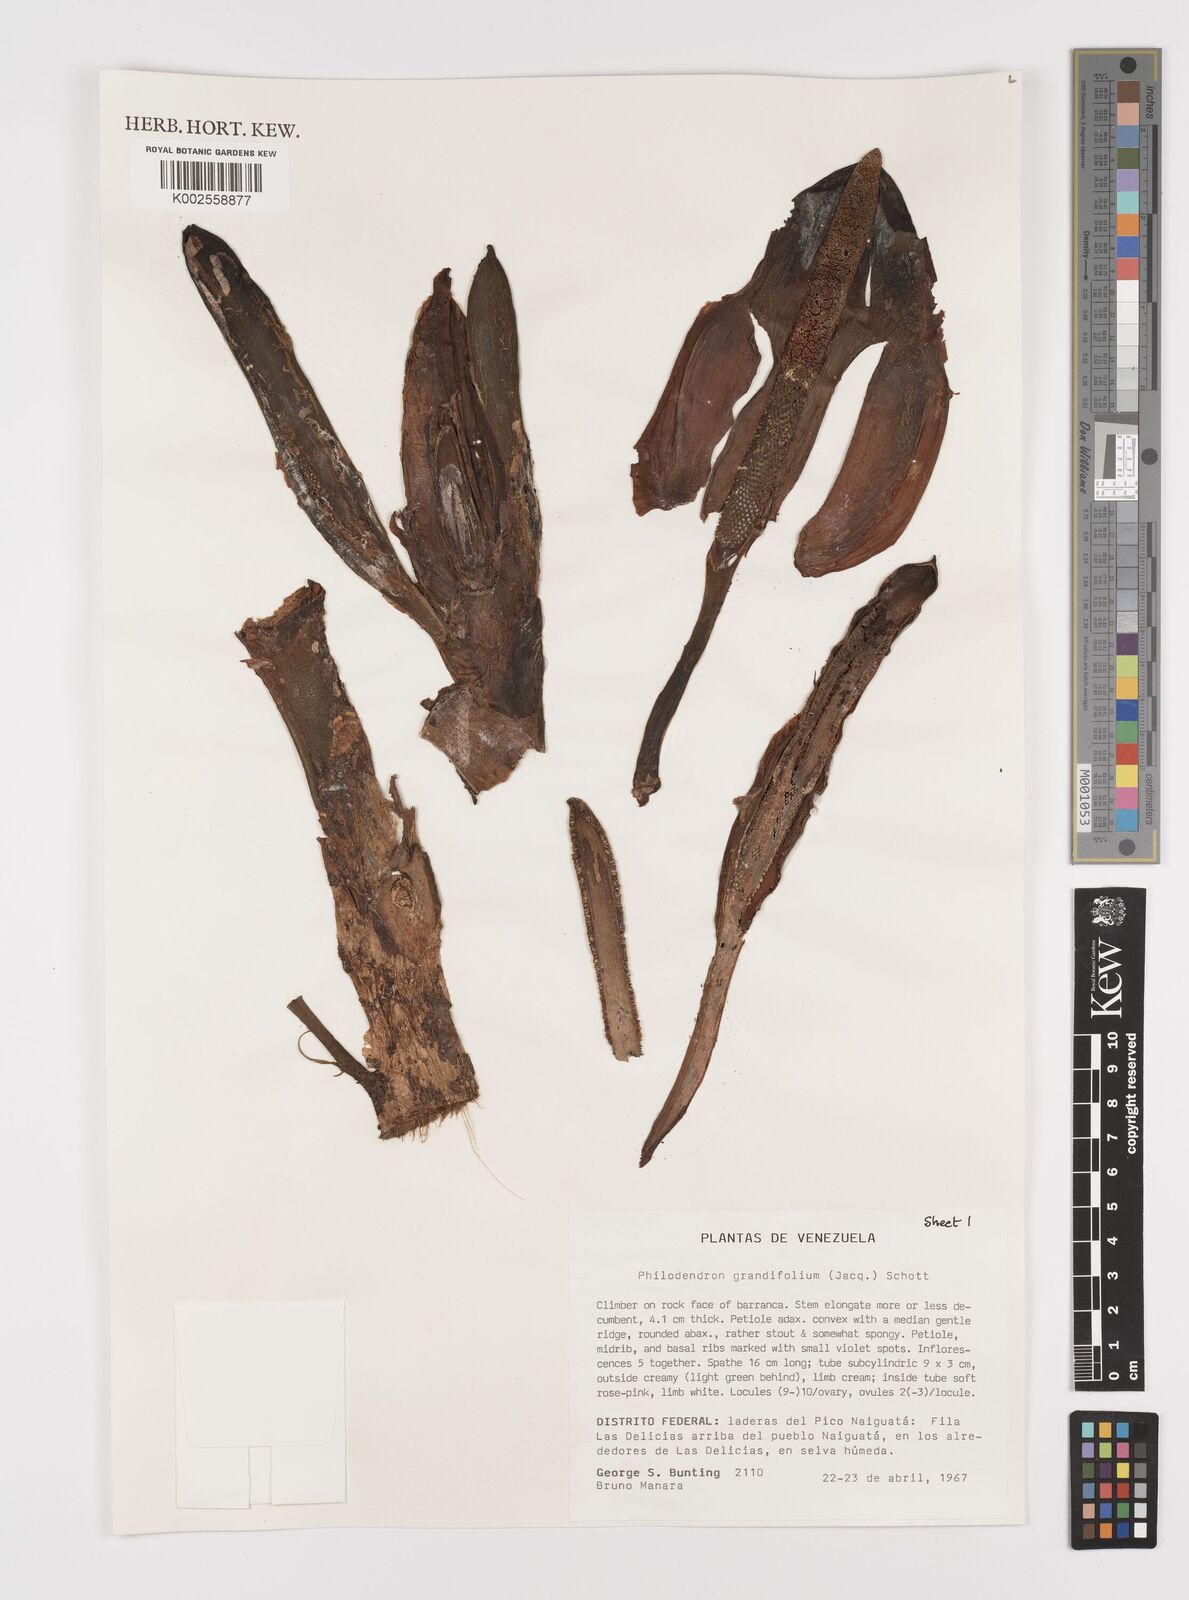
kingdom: Plantae
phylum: Tracheophyta
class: Liliopsida
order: Alismatales
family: Araceae
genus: Philodendron
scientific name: Philodendron grandifolium
